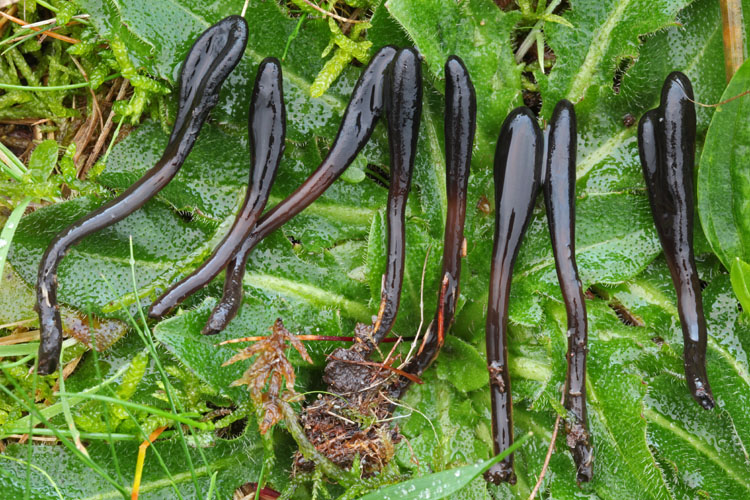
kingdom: Fungi
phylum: Ascomycota
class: Geoglossomycetes
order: Geoglossales
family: Geoglossaceae
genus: Glutinoglossum
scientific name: Glutinoglossum glutinosum
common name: slimet jordtunge
